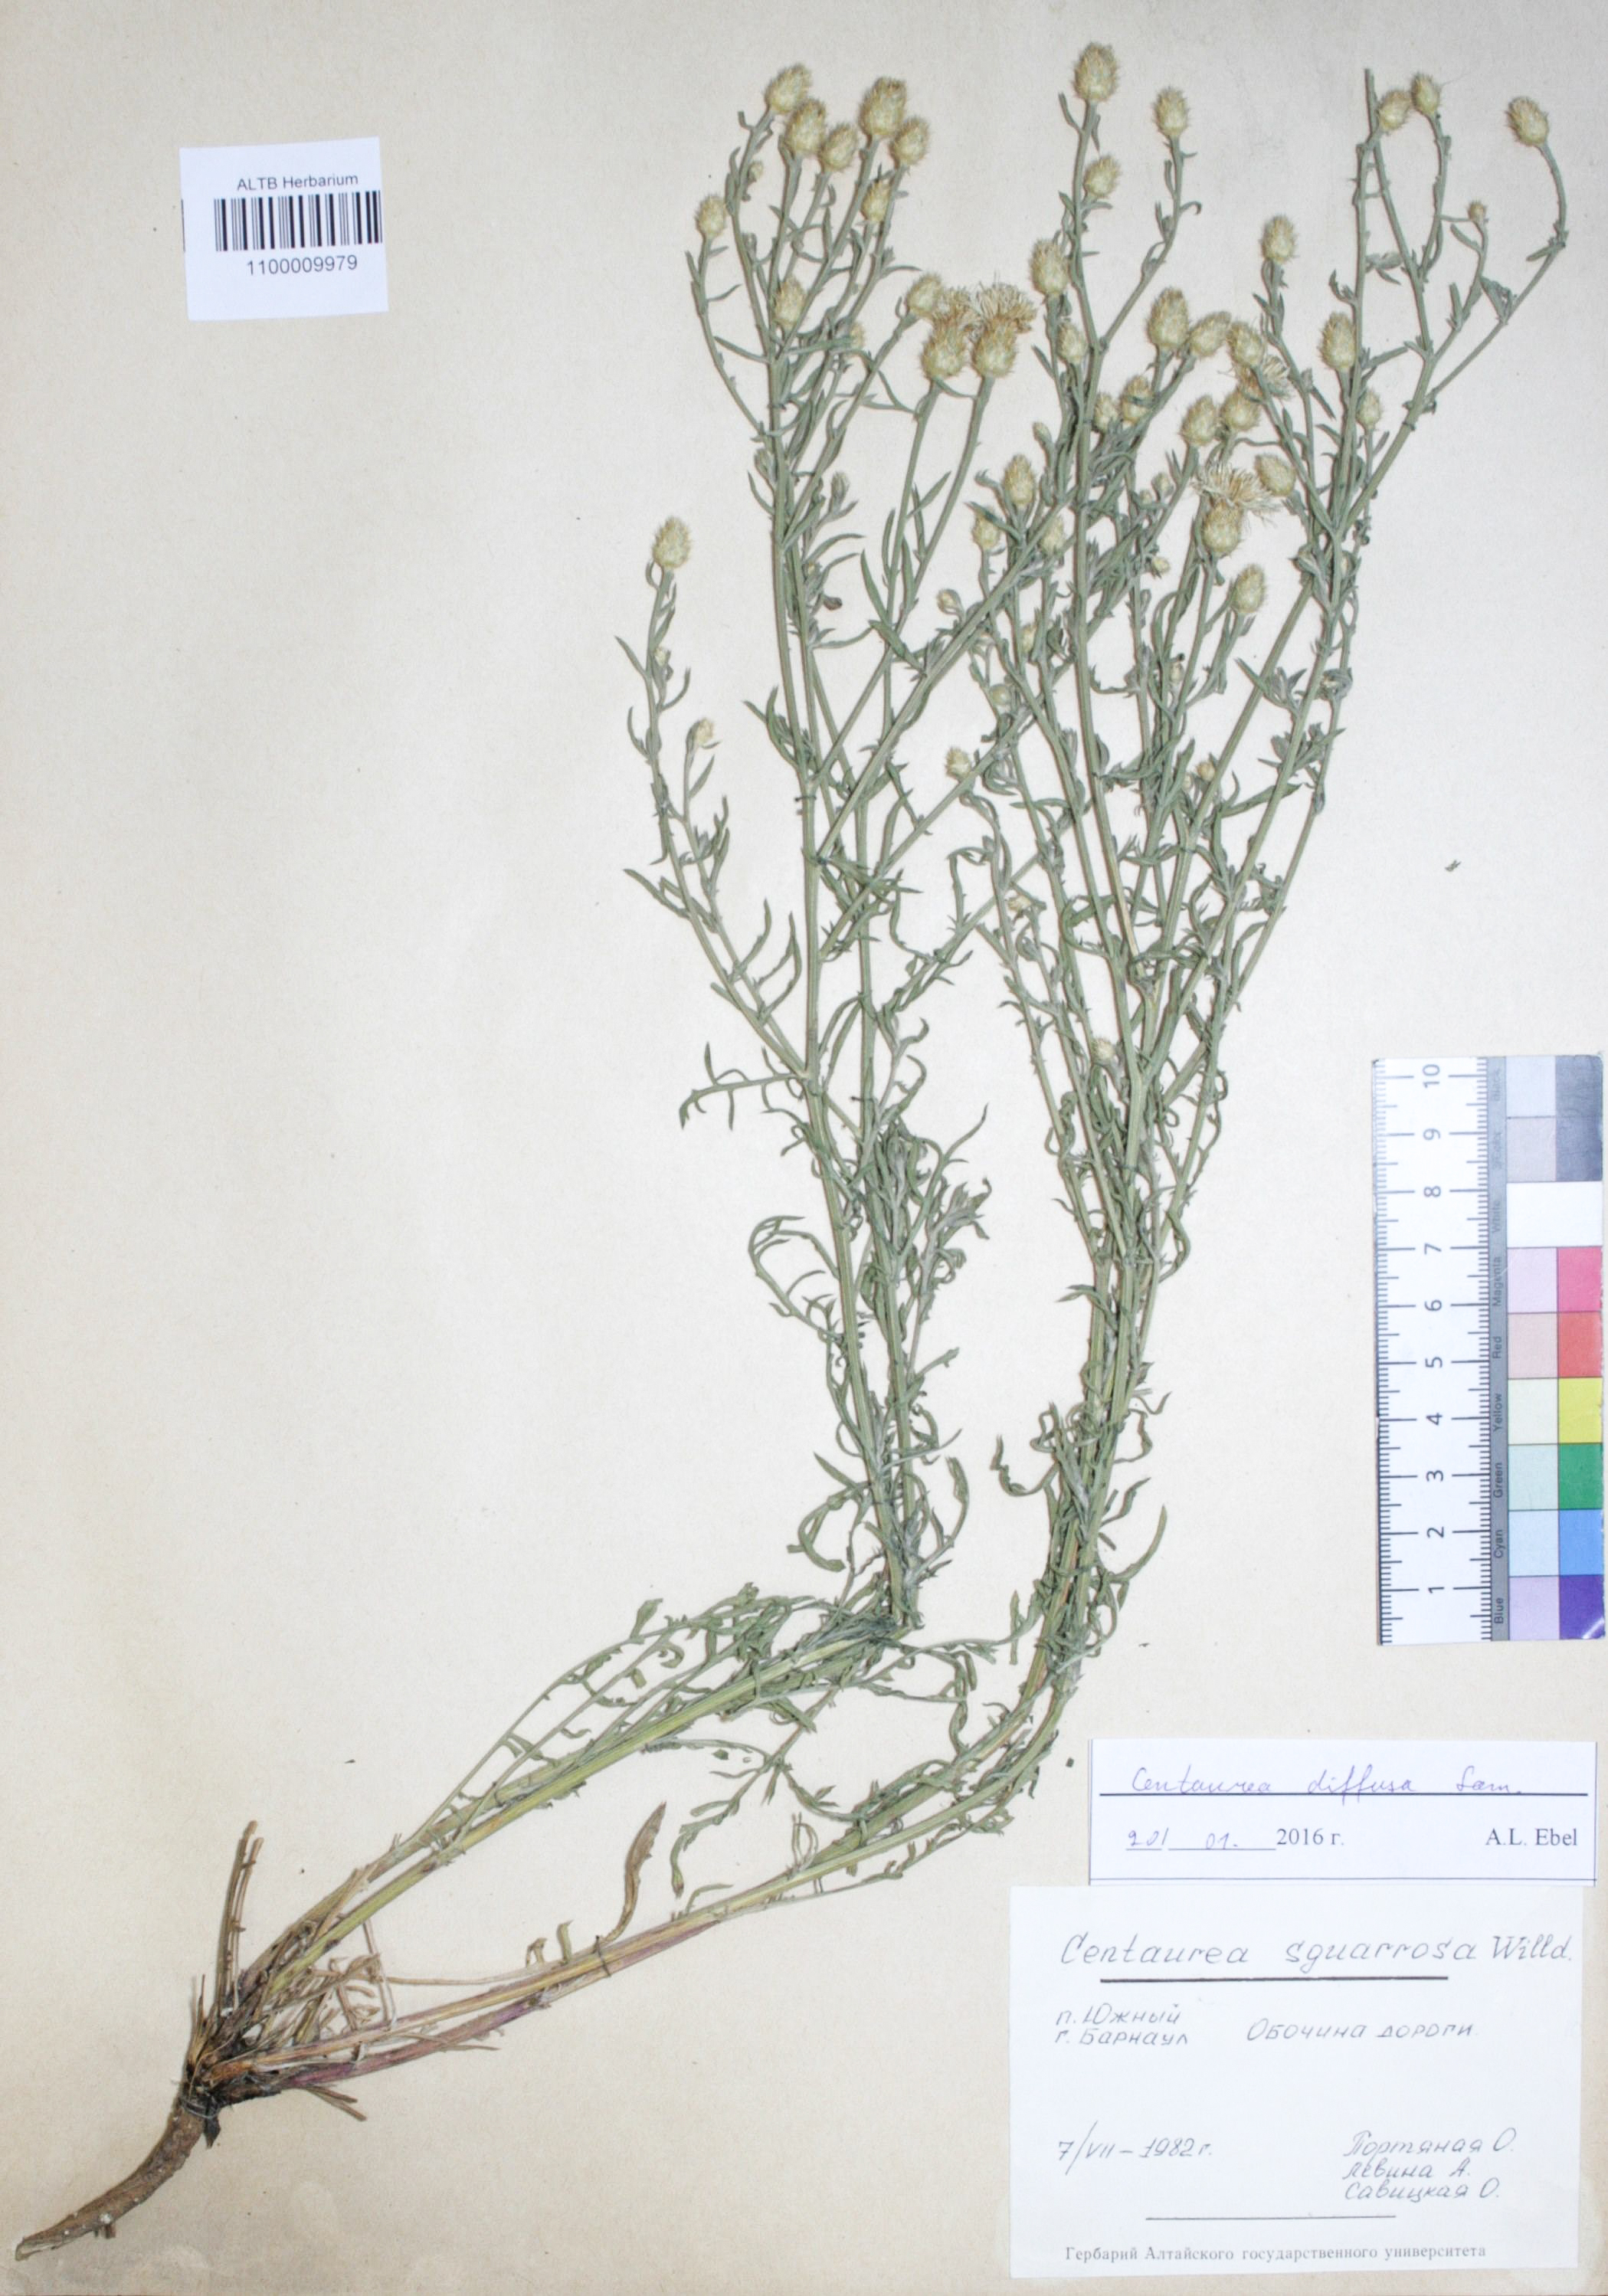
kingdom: Plantae
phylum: Tracheophyta
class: Magnoliopsida
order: Asterales
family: Asteraceae
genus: Centaurea
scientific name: Centaurea virgata
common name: Squarrose knapweed
